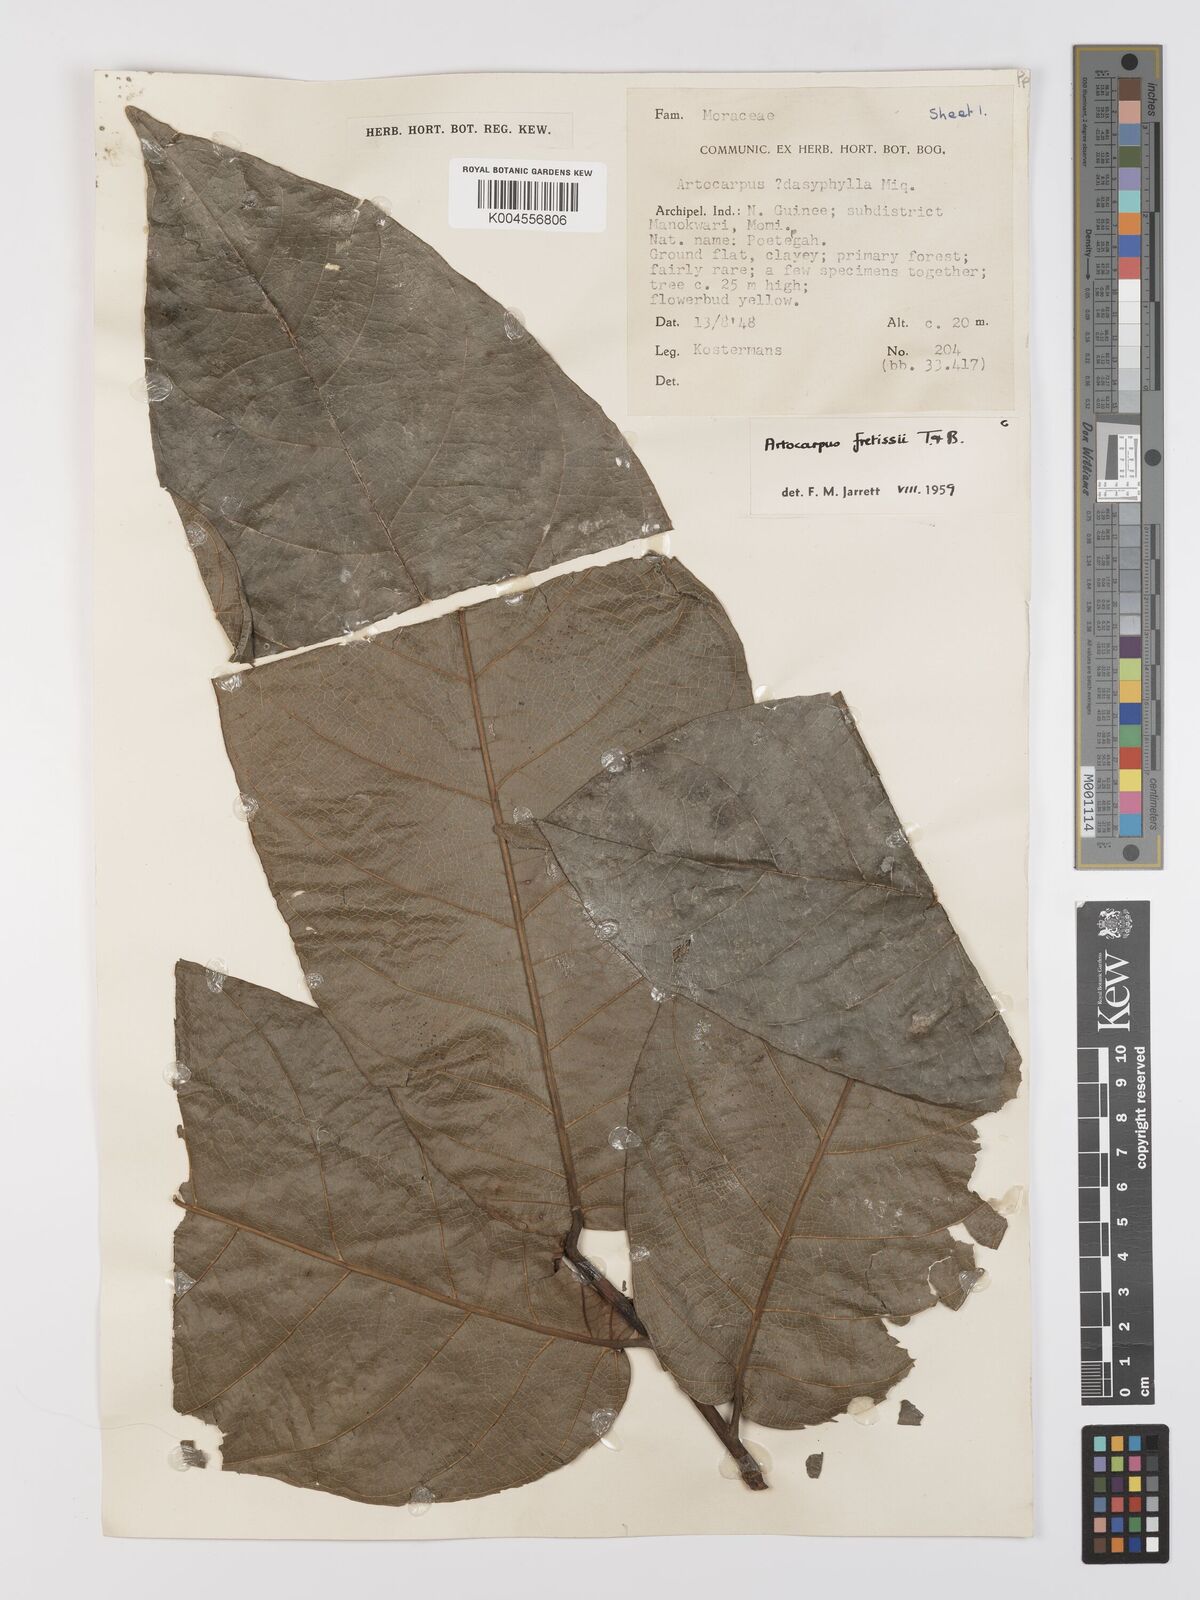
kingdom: Plantae
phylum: Tracheophyta
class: Magnoliopsida
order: Rosales
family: Moraceae
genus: Artocarpus
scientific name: Artocarpus lacucha
